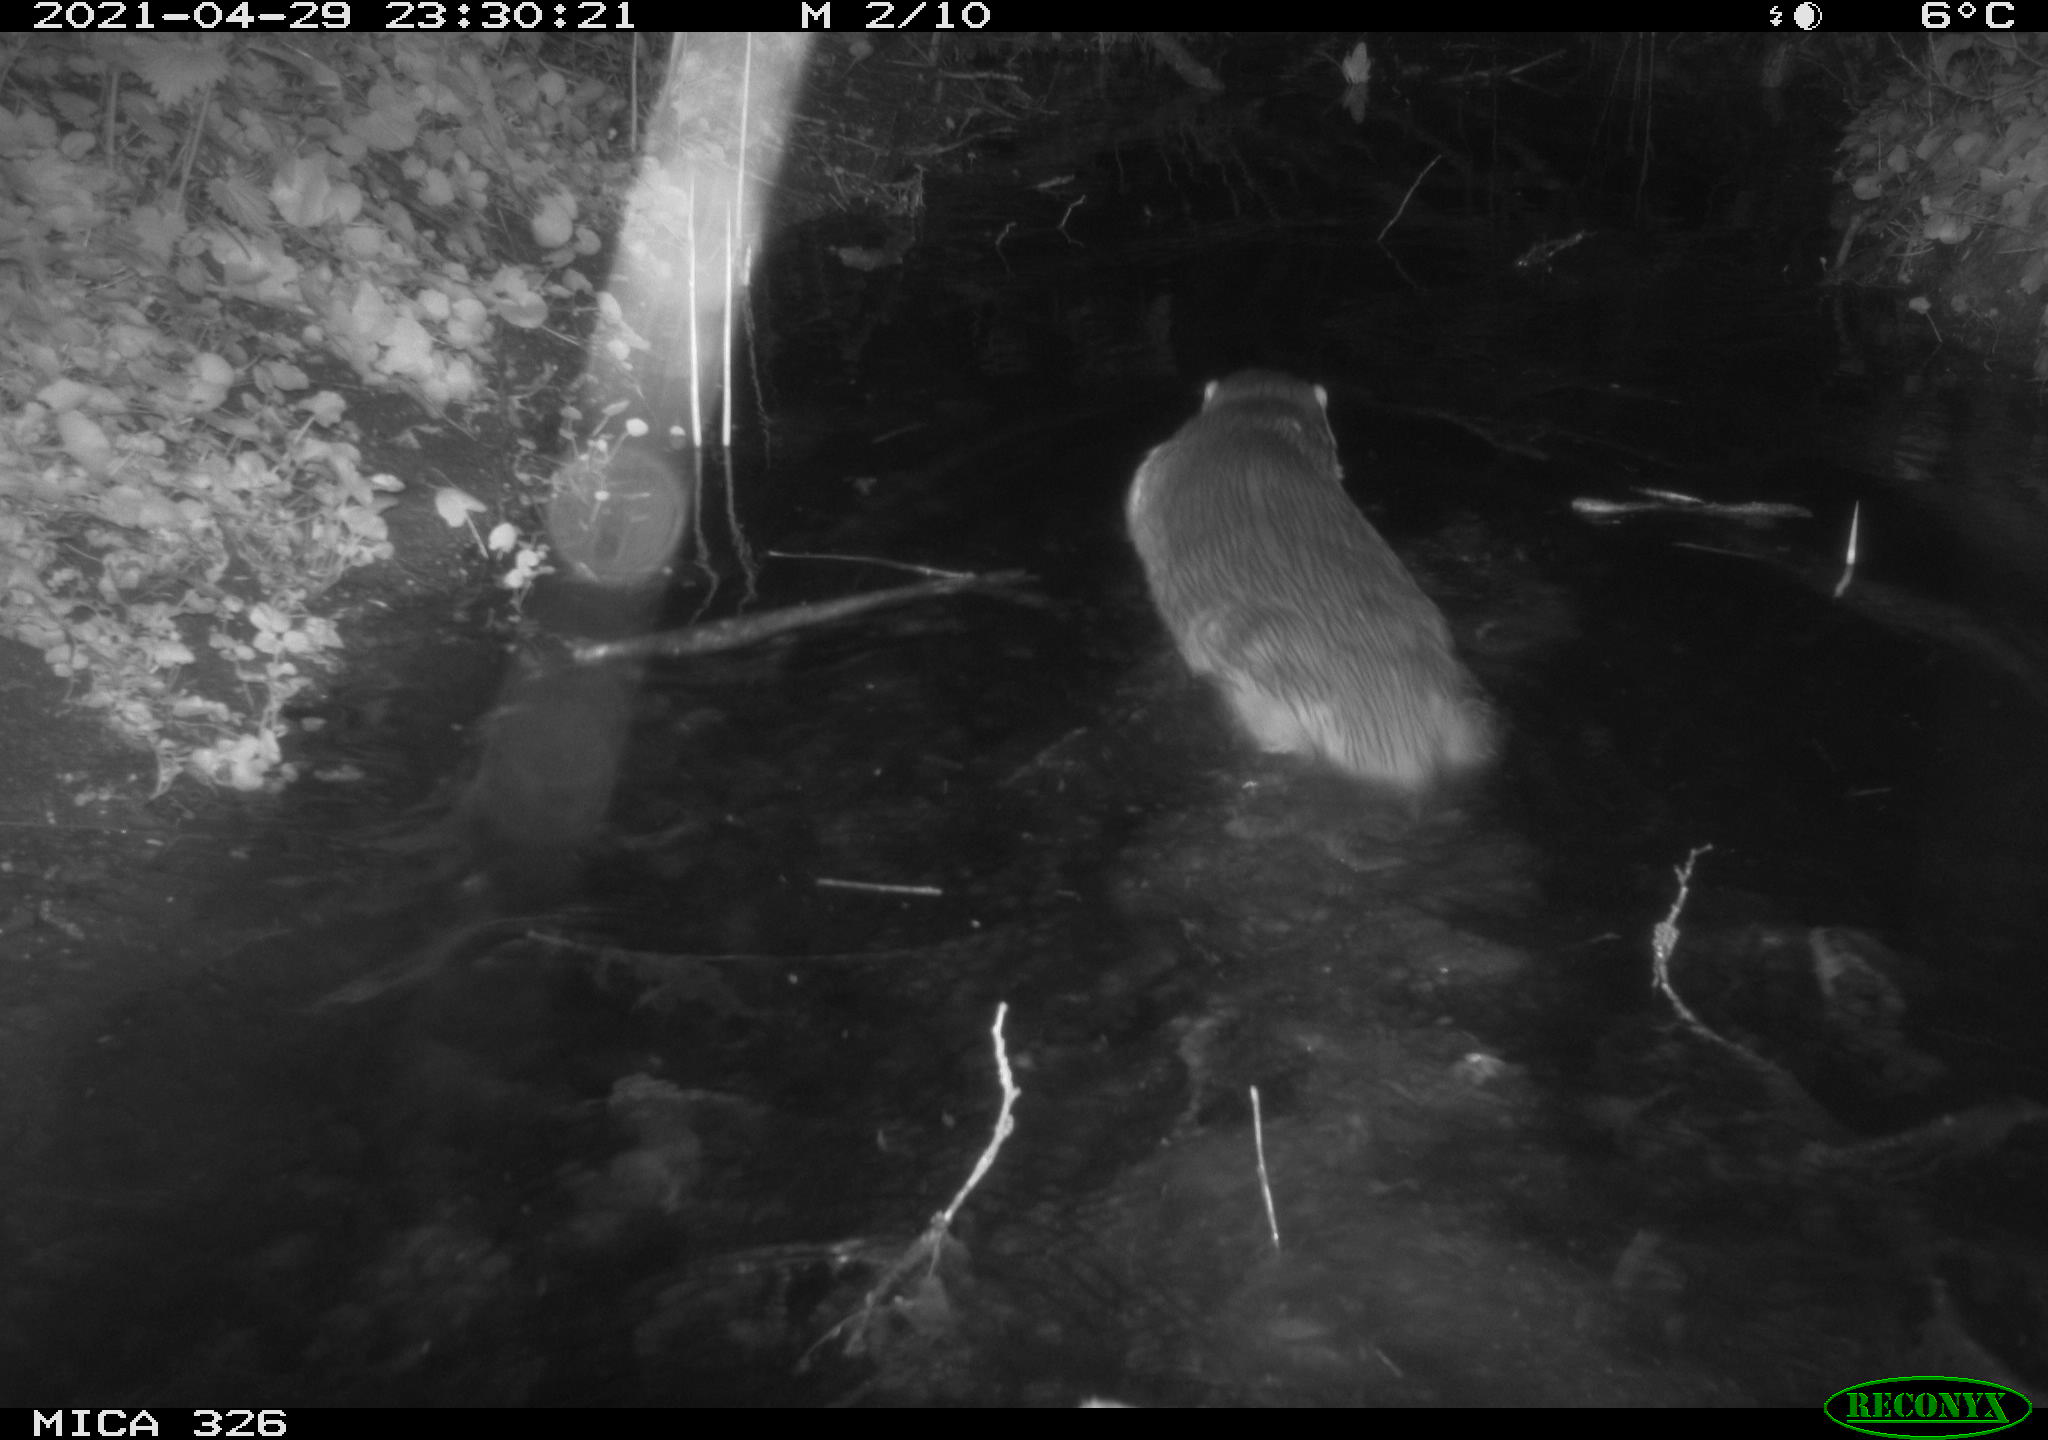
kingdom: Animalia
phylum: Chordata
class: Mammalia
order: Carnivora
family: Mustelidae
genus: Lutra
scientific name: Lutra lutra
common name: European otter
